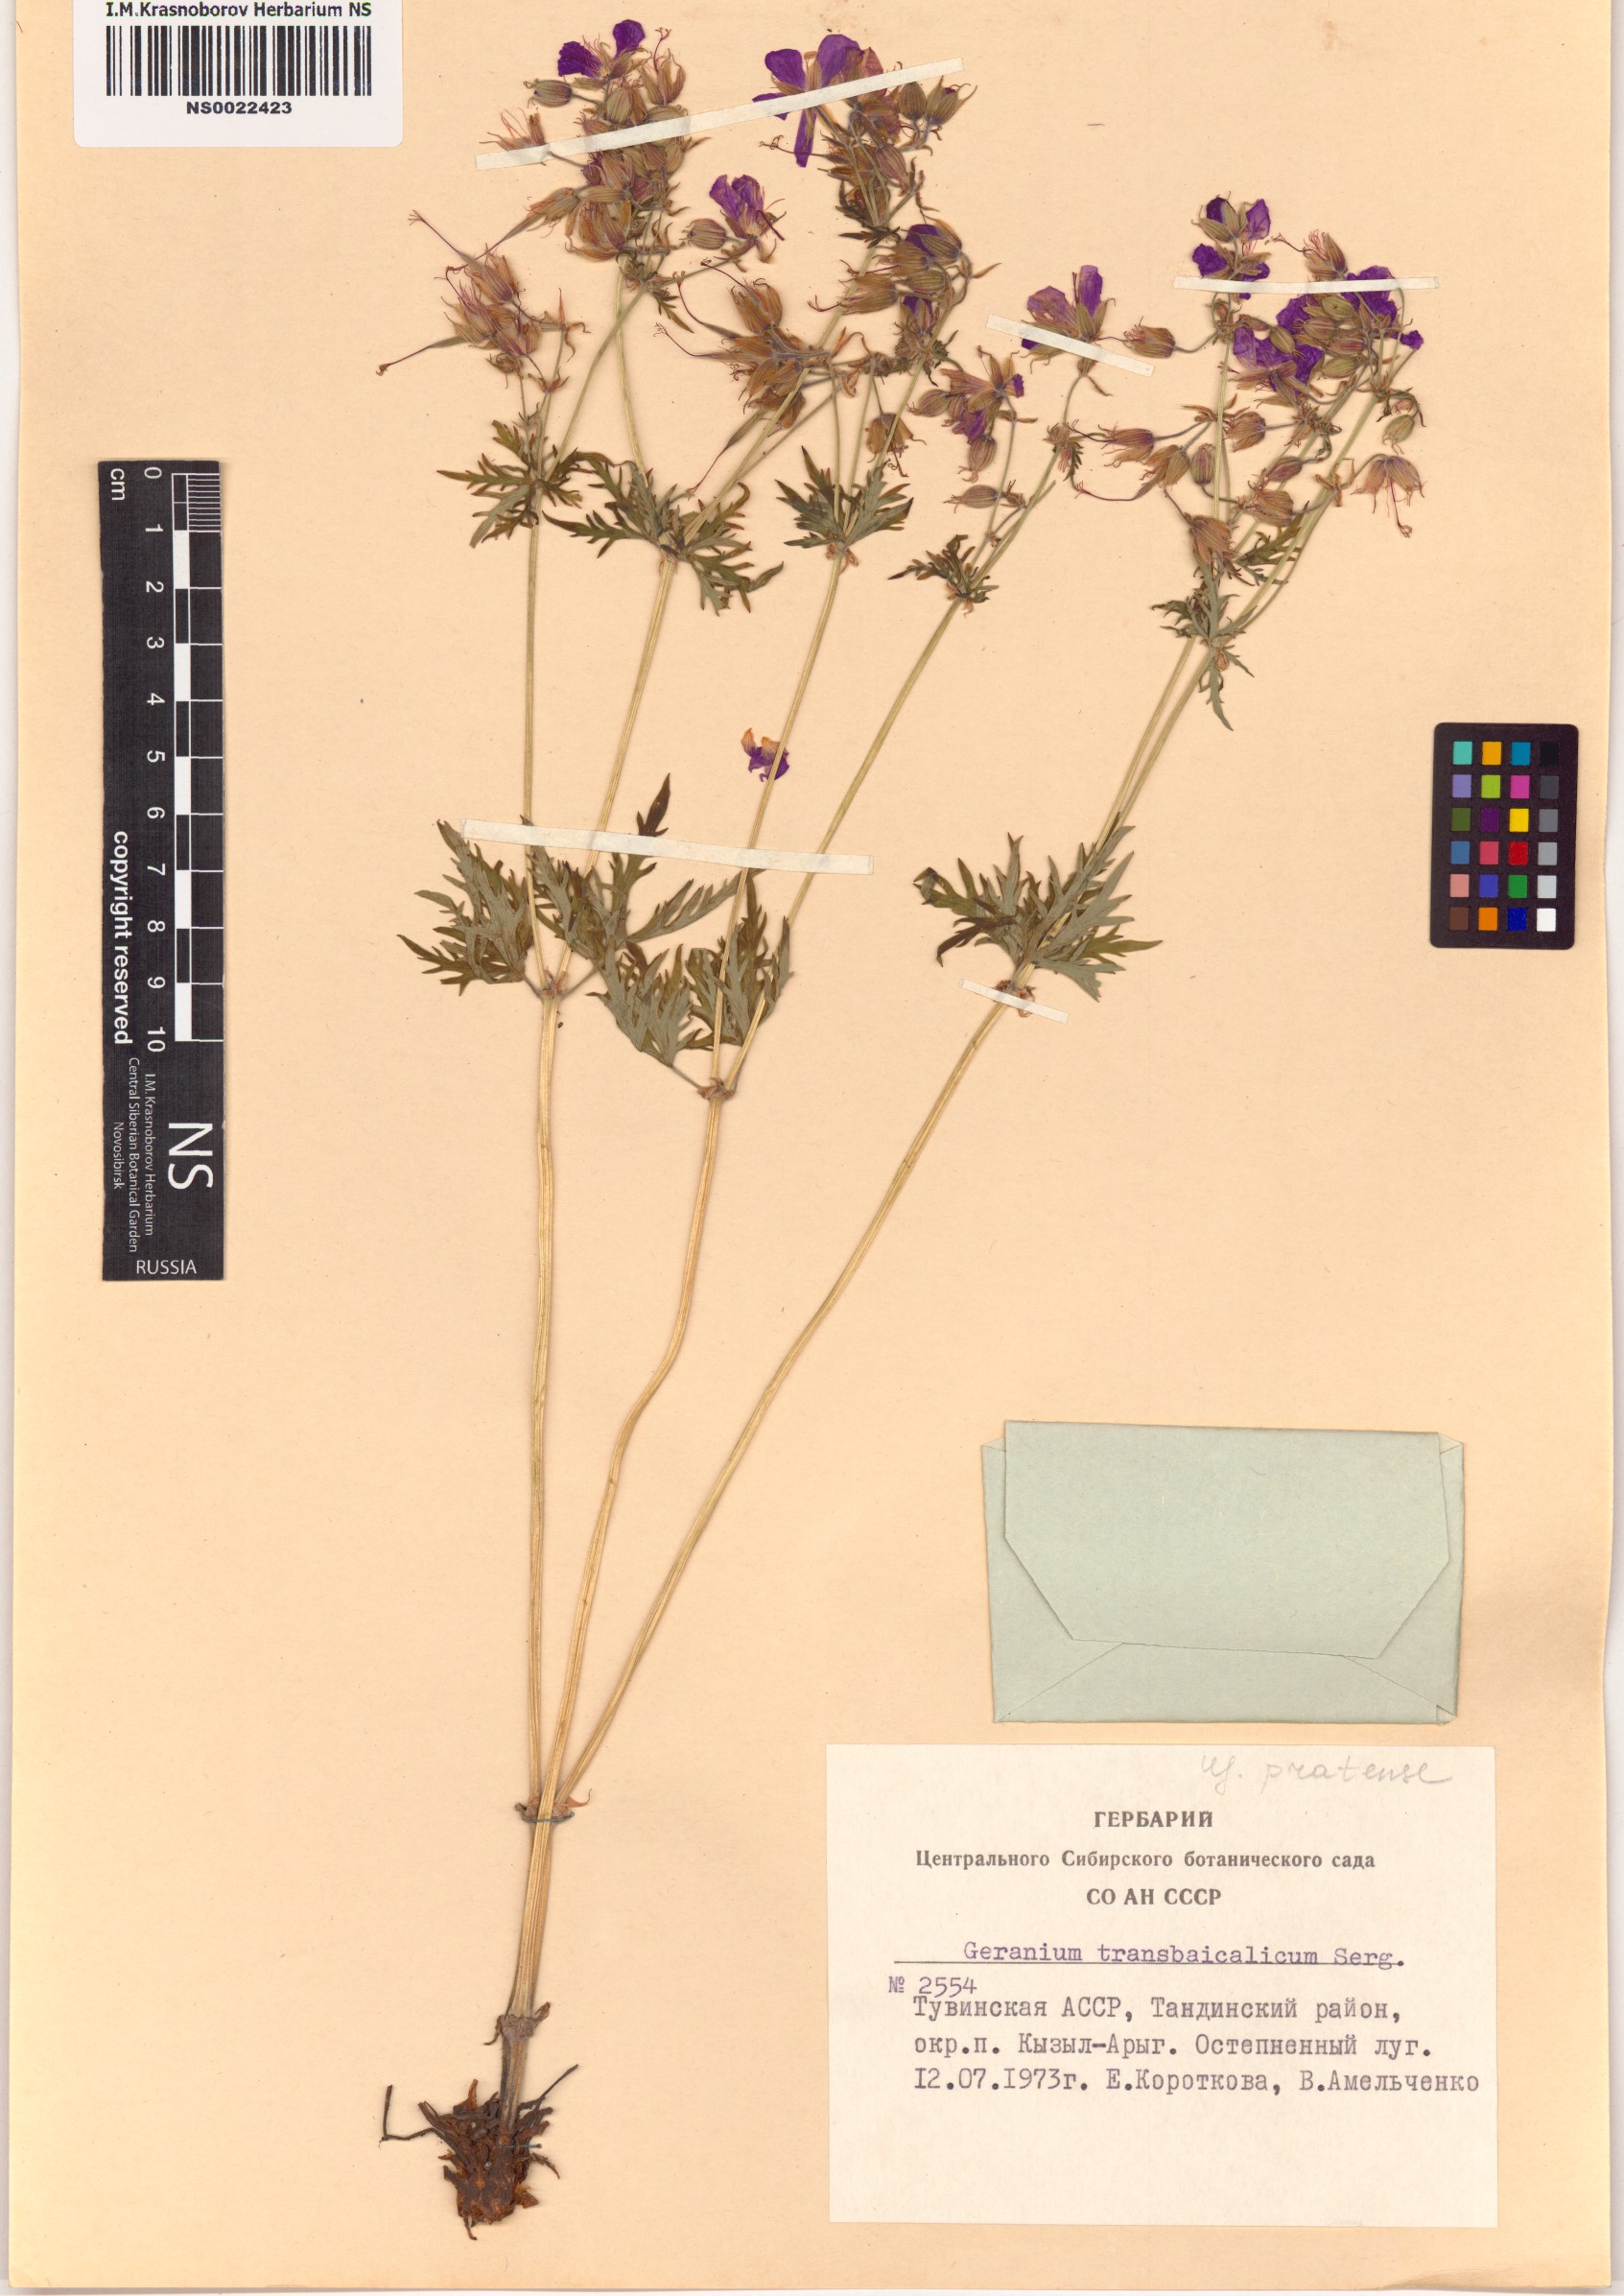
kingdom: Plantae
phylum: Tracheophyta
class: Magnoliopsida
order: Geraniales
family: Geraniaceae
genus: Geranium
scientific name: Geranium pratense
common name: Meadow crane's-bill
